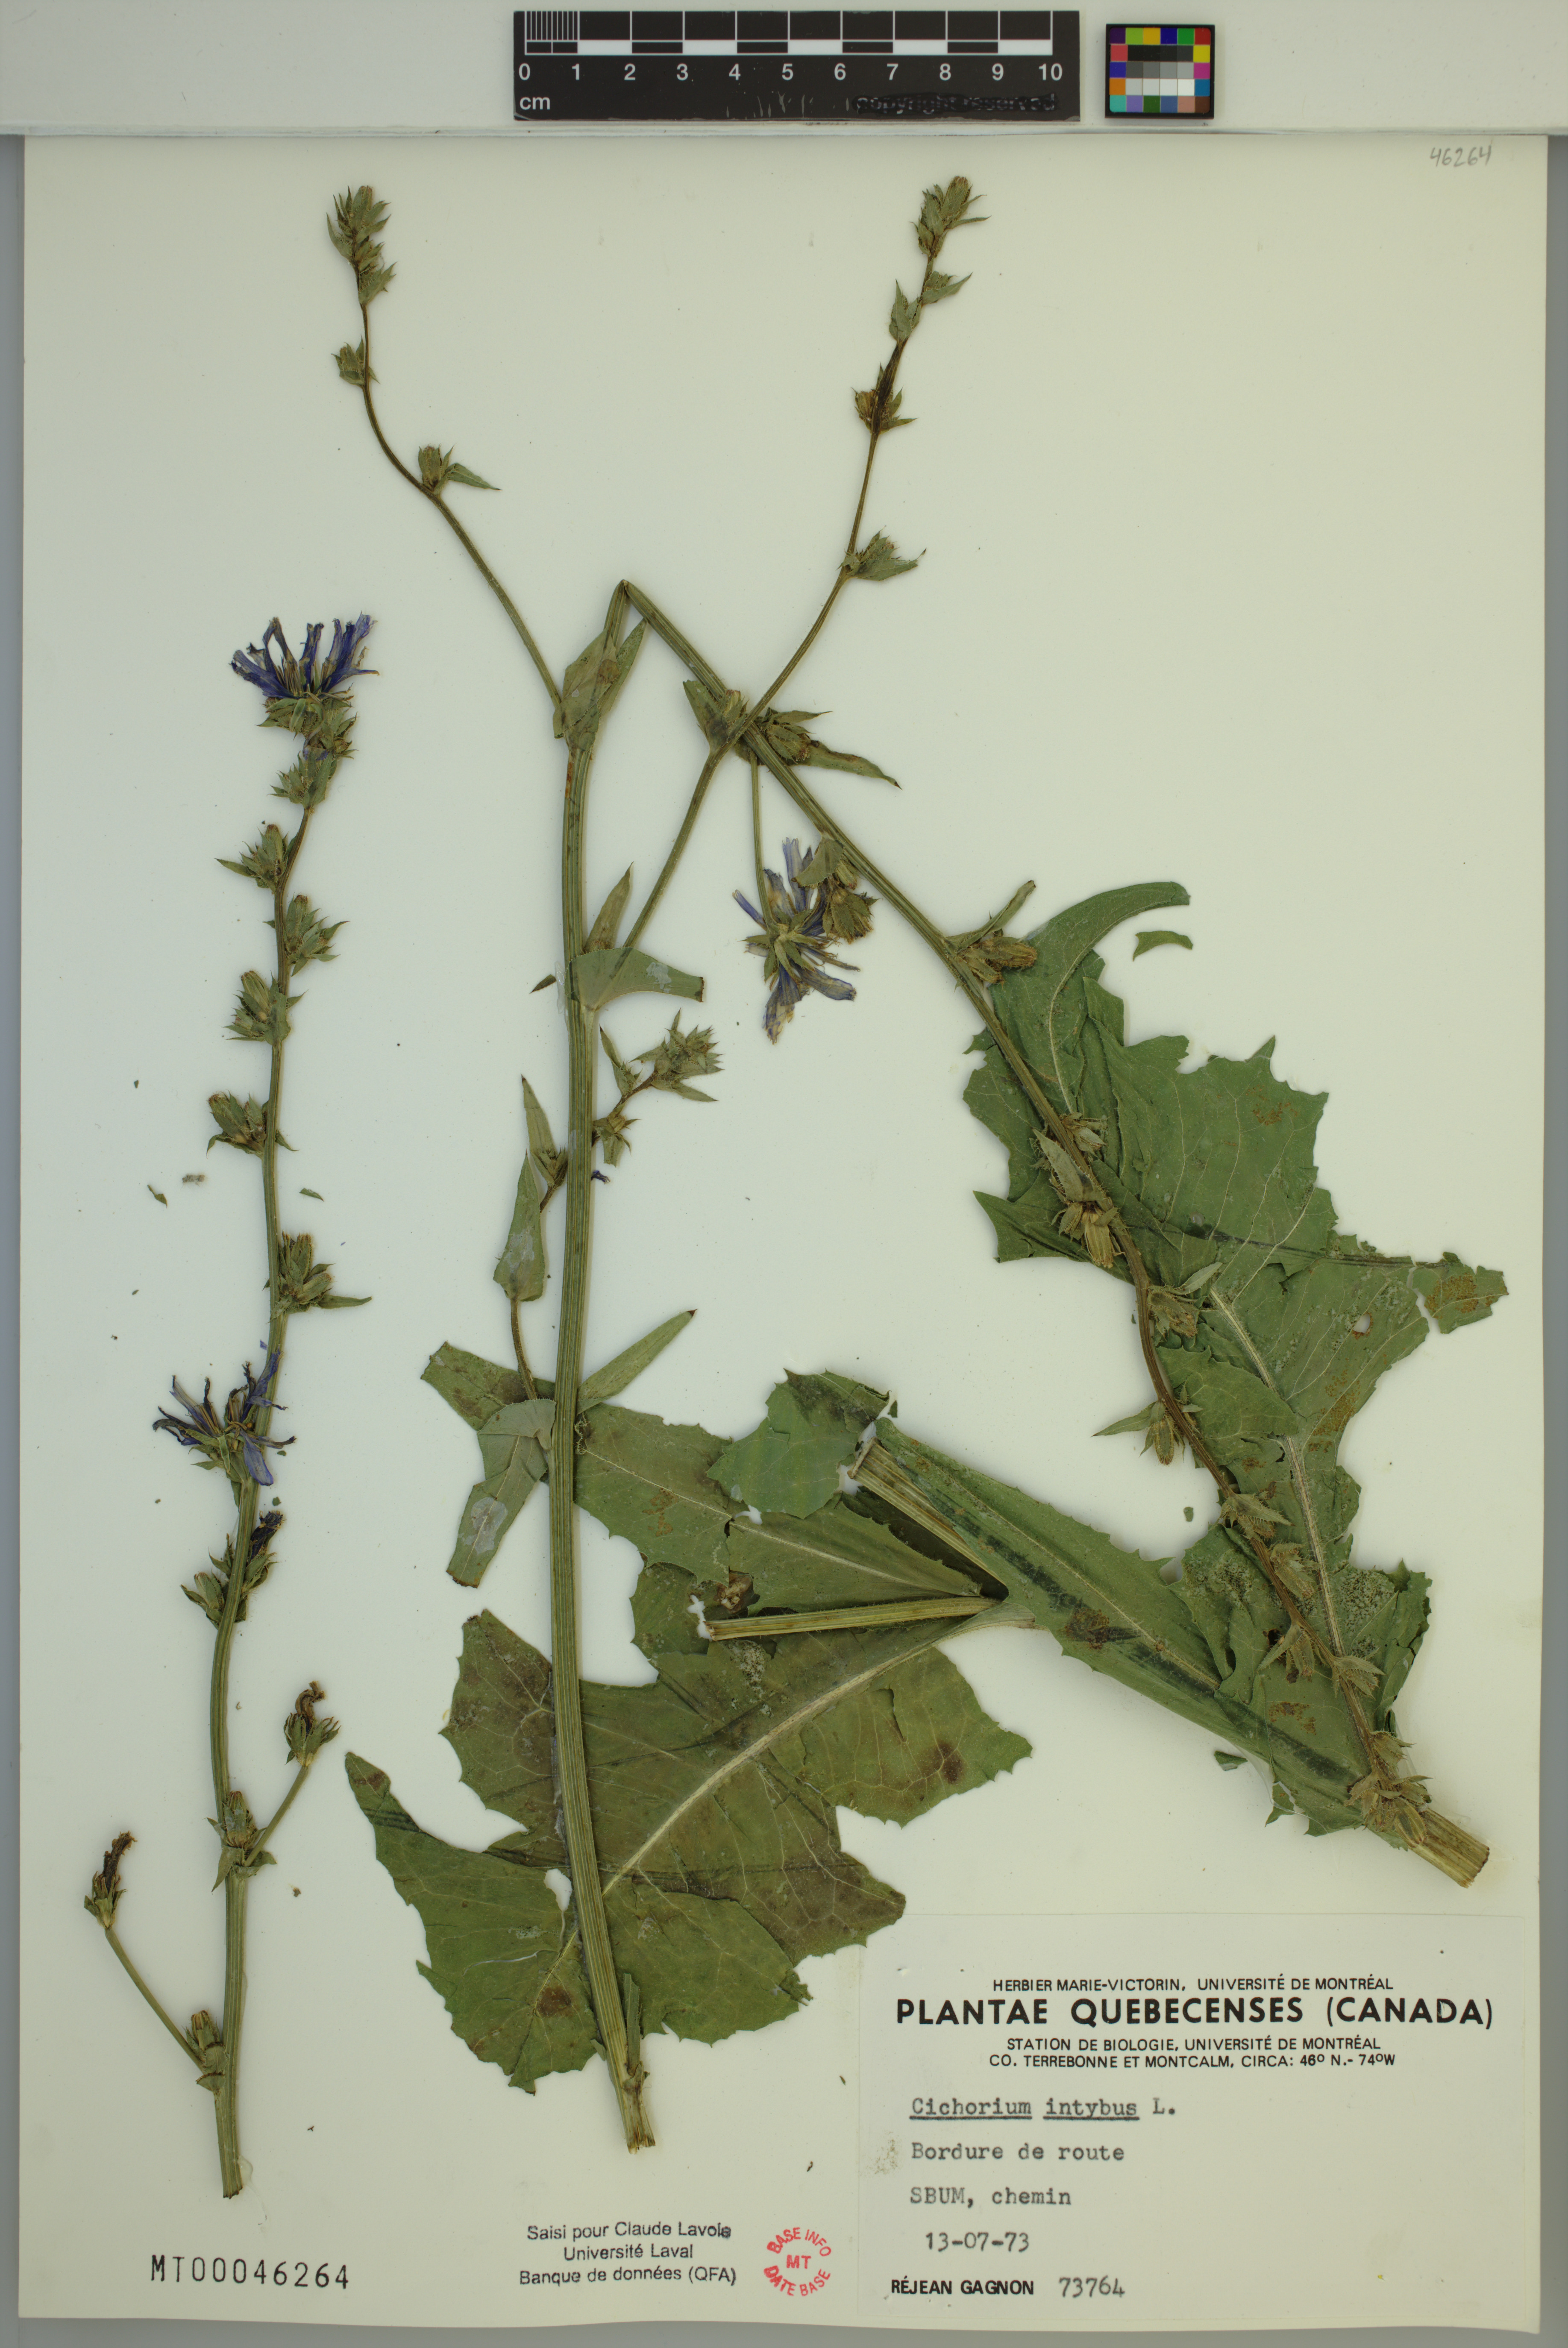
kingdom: Plantae
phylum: Tracheophyta
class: Magnoliopsida
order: Asterales
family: Asteraceae
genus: Cichorium
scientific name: Cichorium intybus
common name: Chicory
